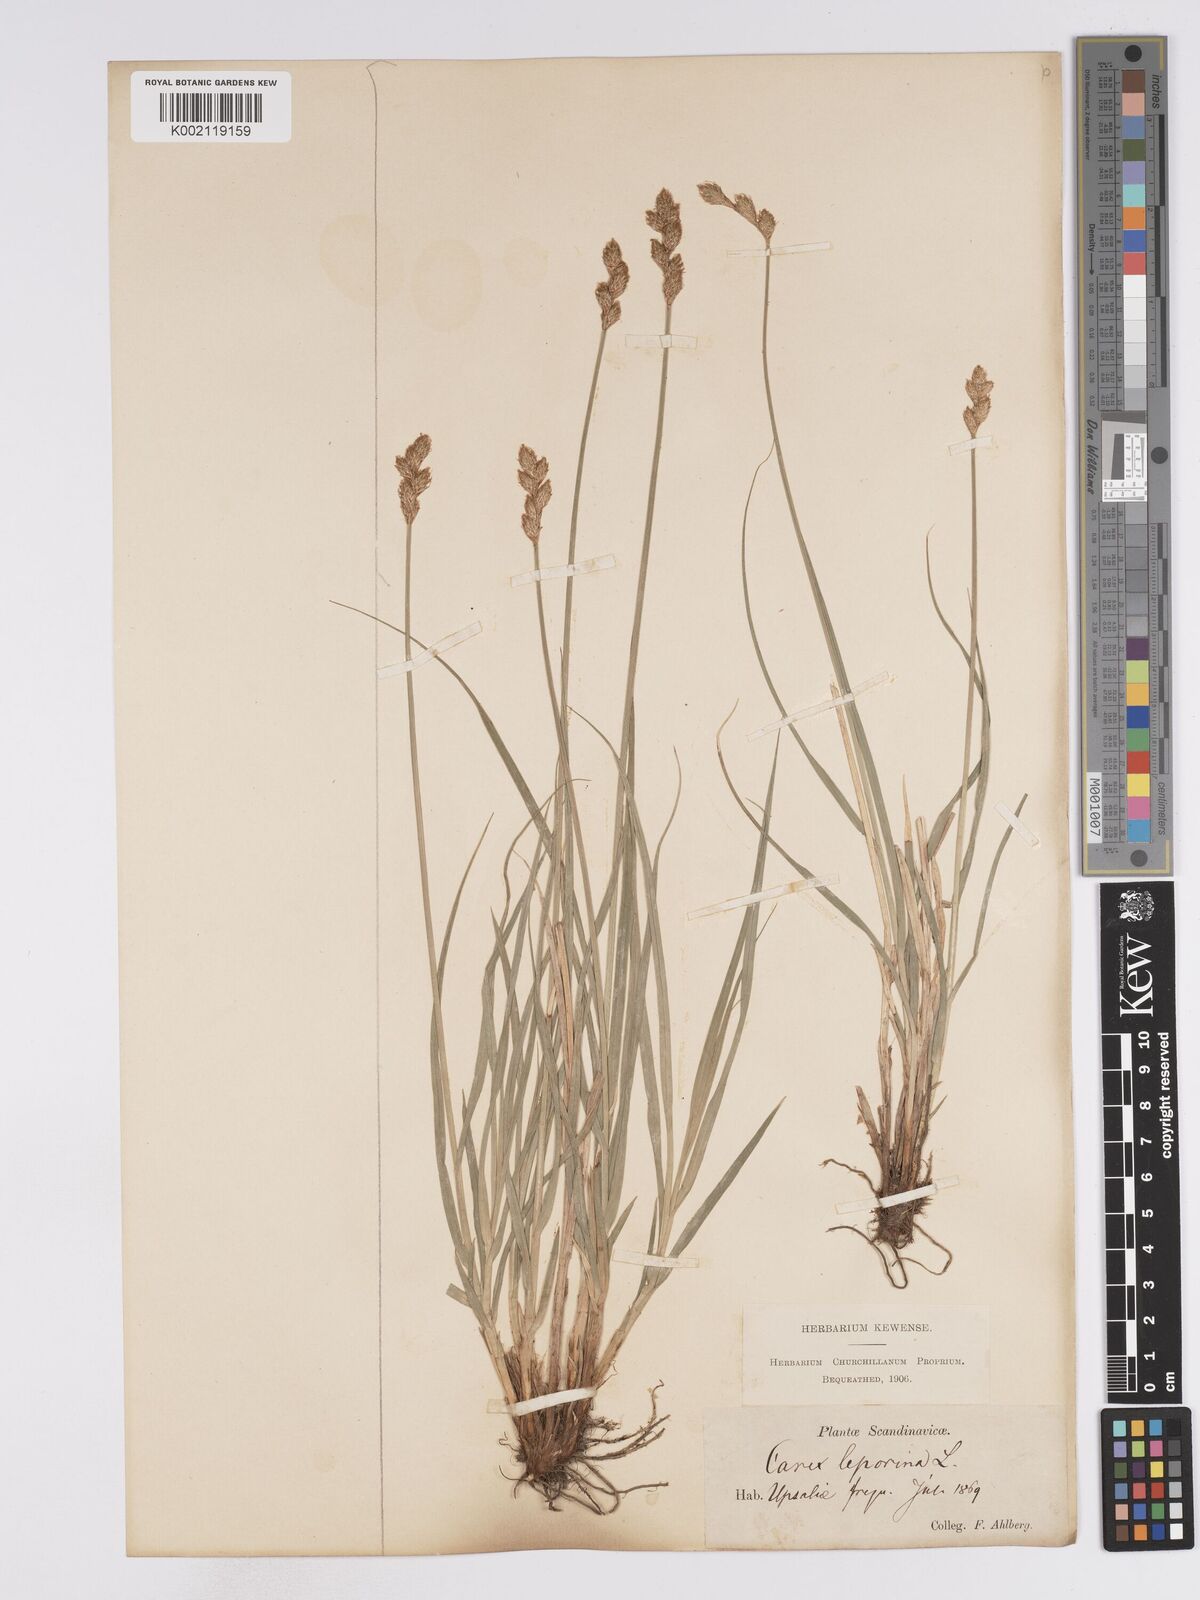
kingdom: Plantae
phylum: Tracheophyta
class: Liliopsida
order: Poales
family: Cyperaceae
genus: Carex
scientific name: Carex leporina
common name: Oval sedge
